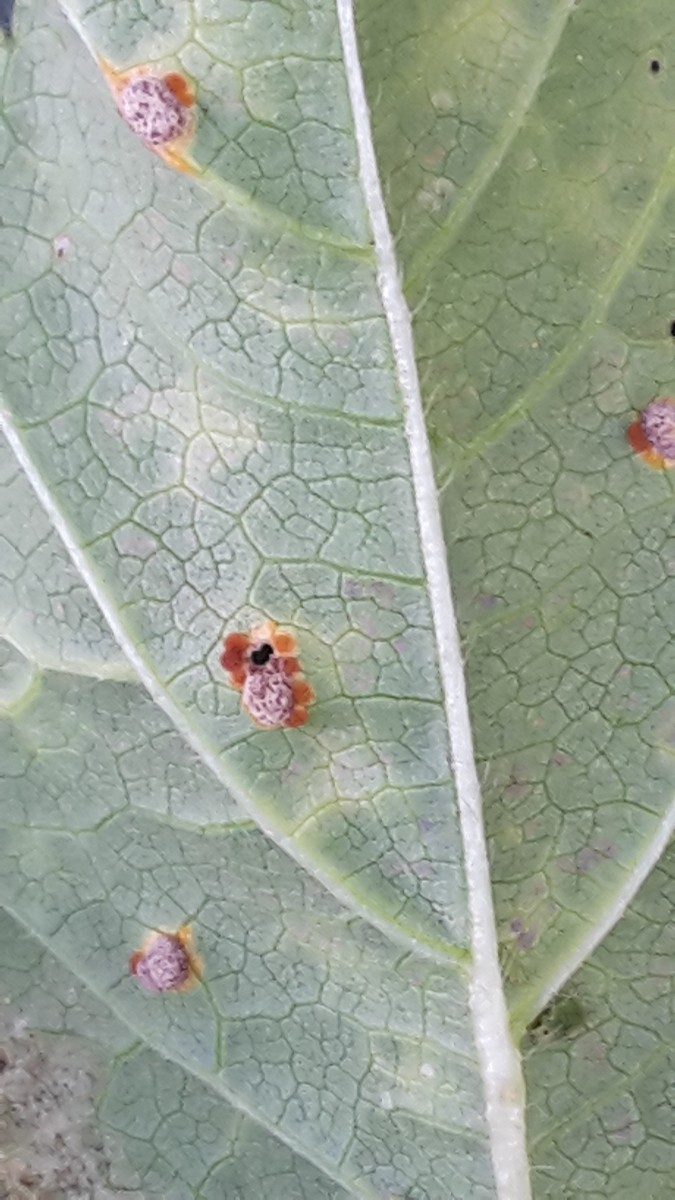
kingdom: Fungi
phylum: Basidiomycota
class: Pucciniomycetes
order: Pucciniales
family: Pucciniaceae
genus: Puccinia
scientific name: Puccinia malvacearum
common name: stokrose-tvecellerust
